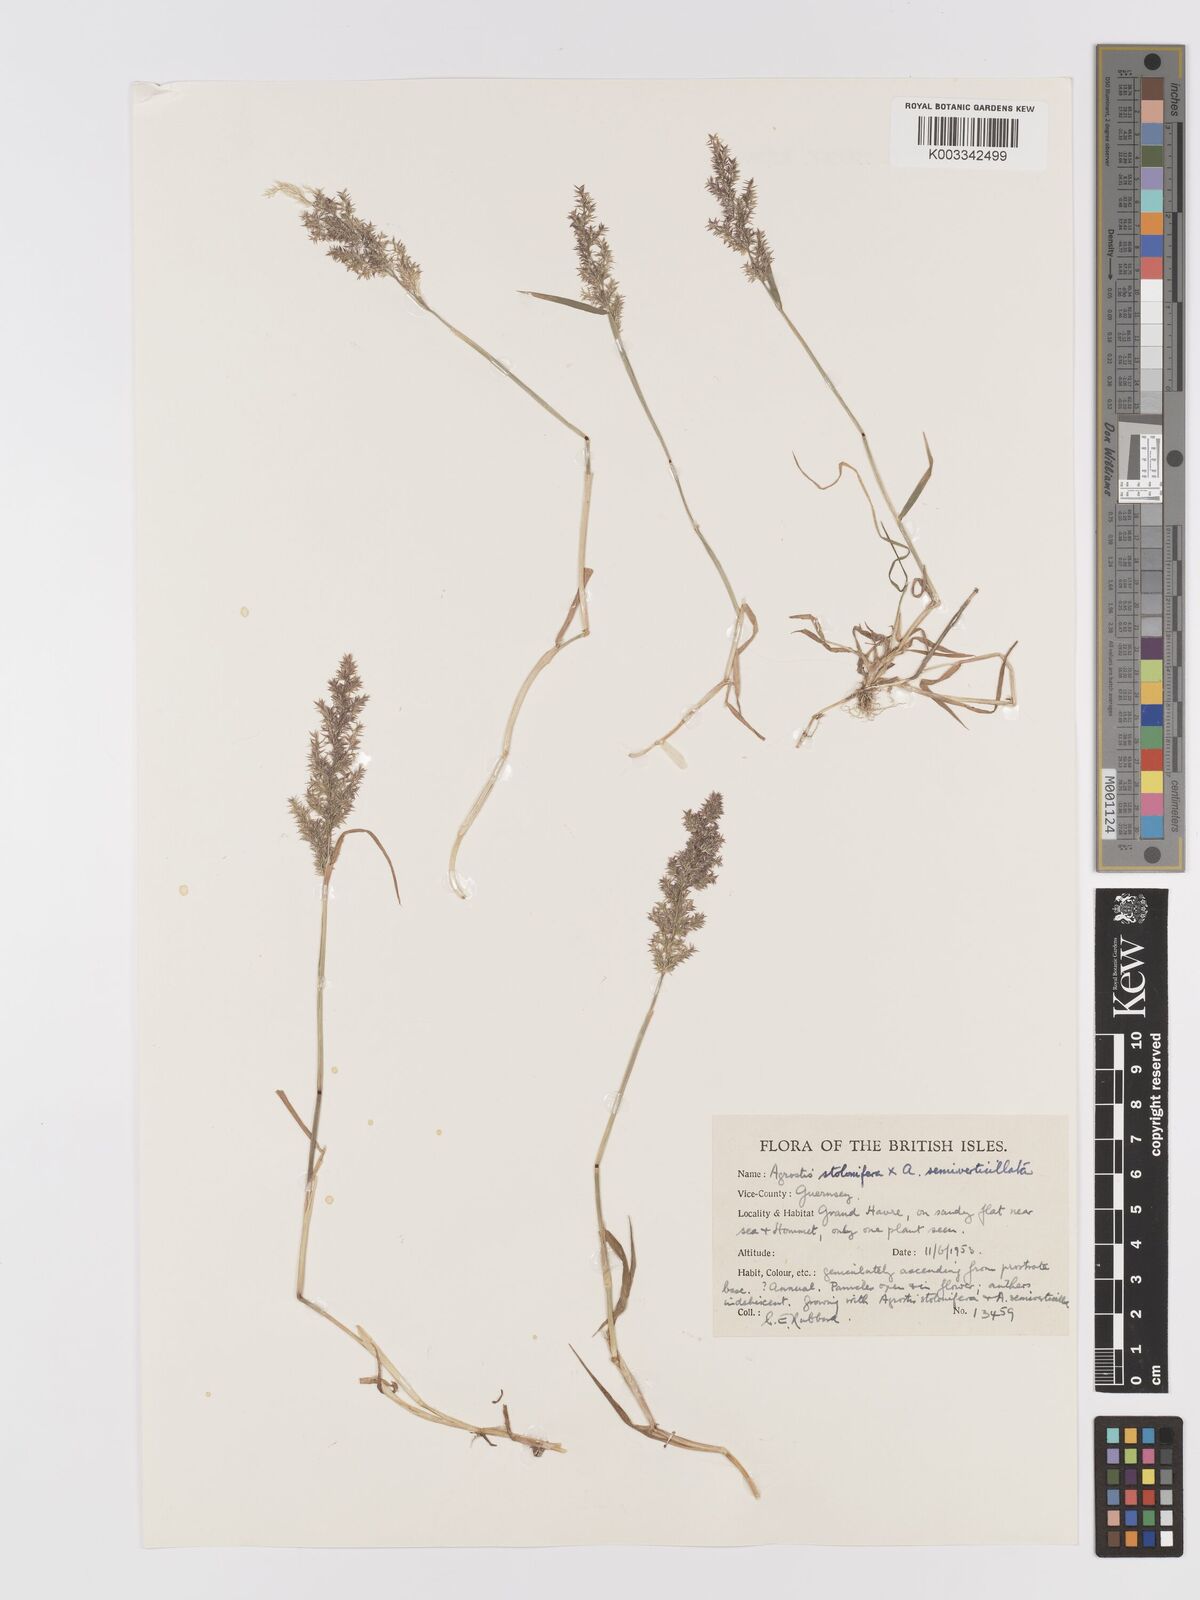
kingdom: Plantae
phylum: Tracheophyta
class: Liliopsida
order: Poales
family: Poaceae
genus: Agrostis
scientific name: Agrostis gigantea
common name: Black bent
